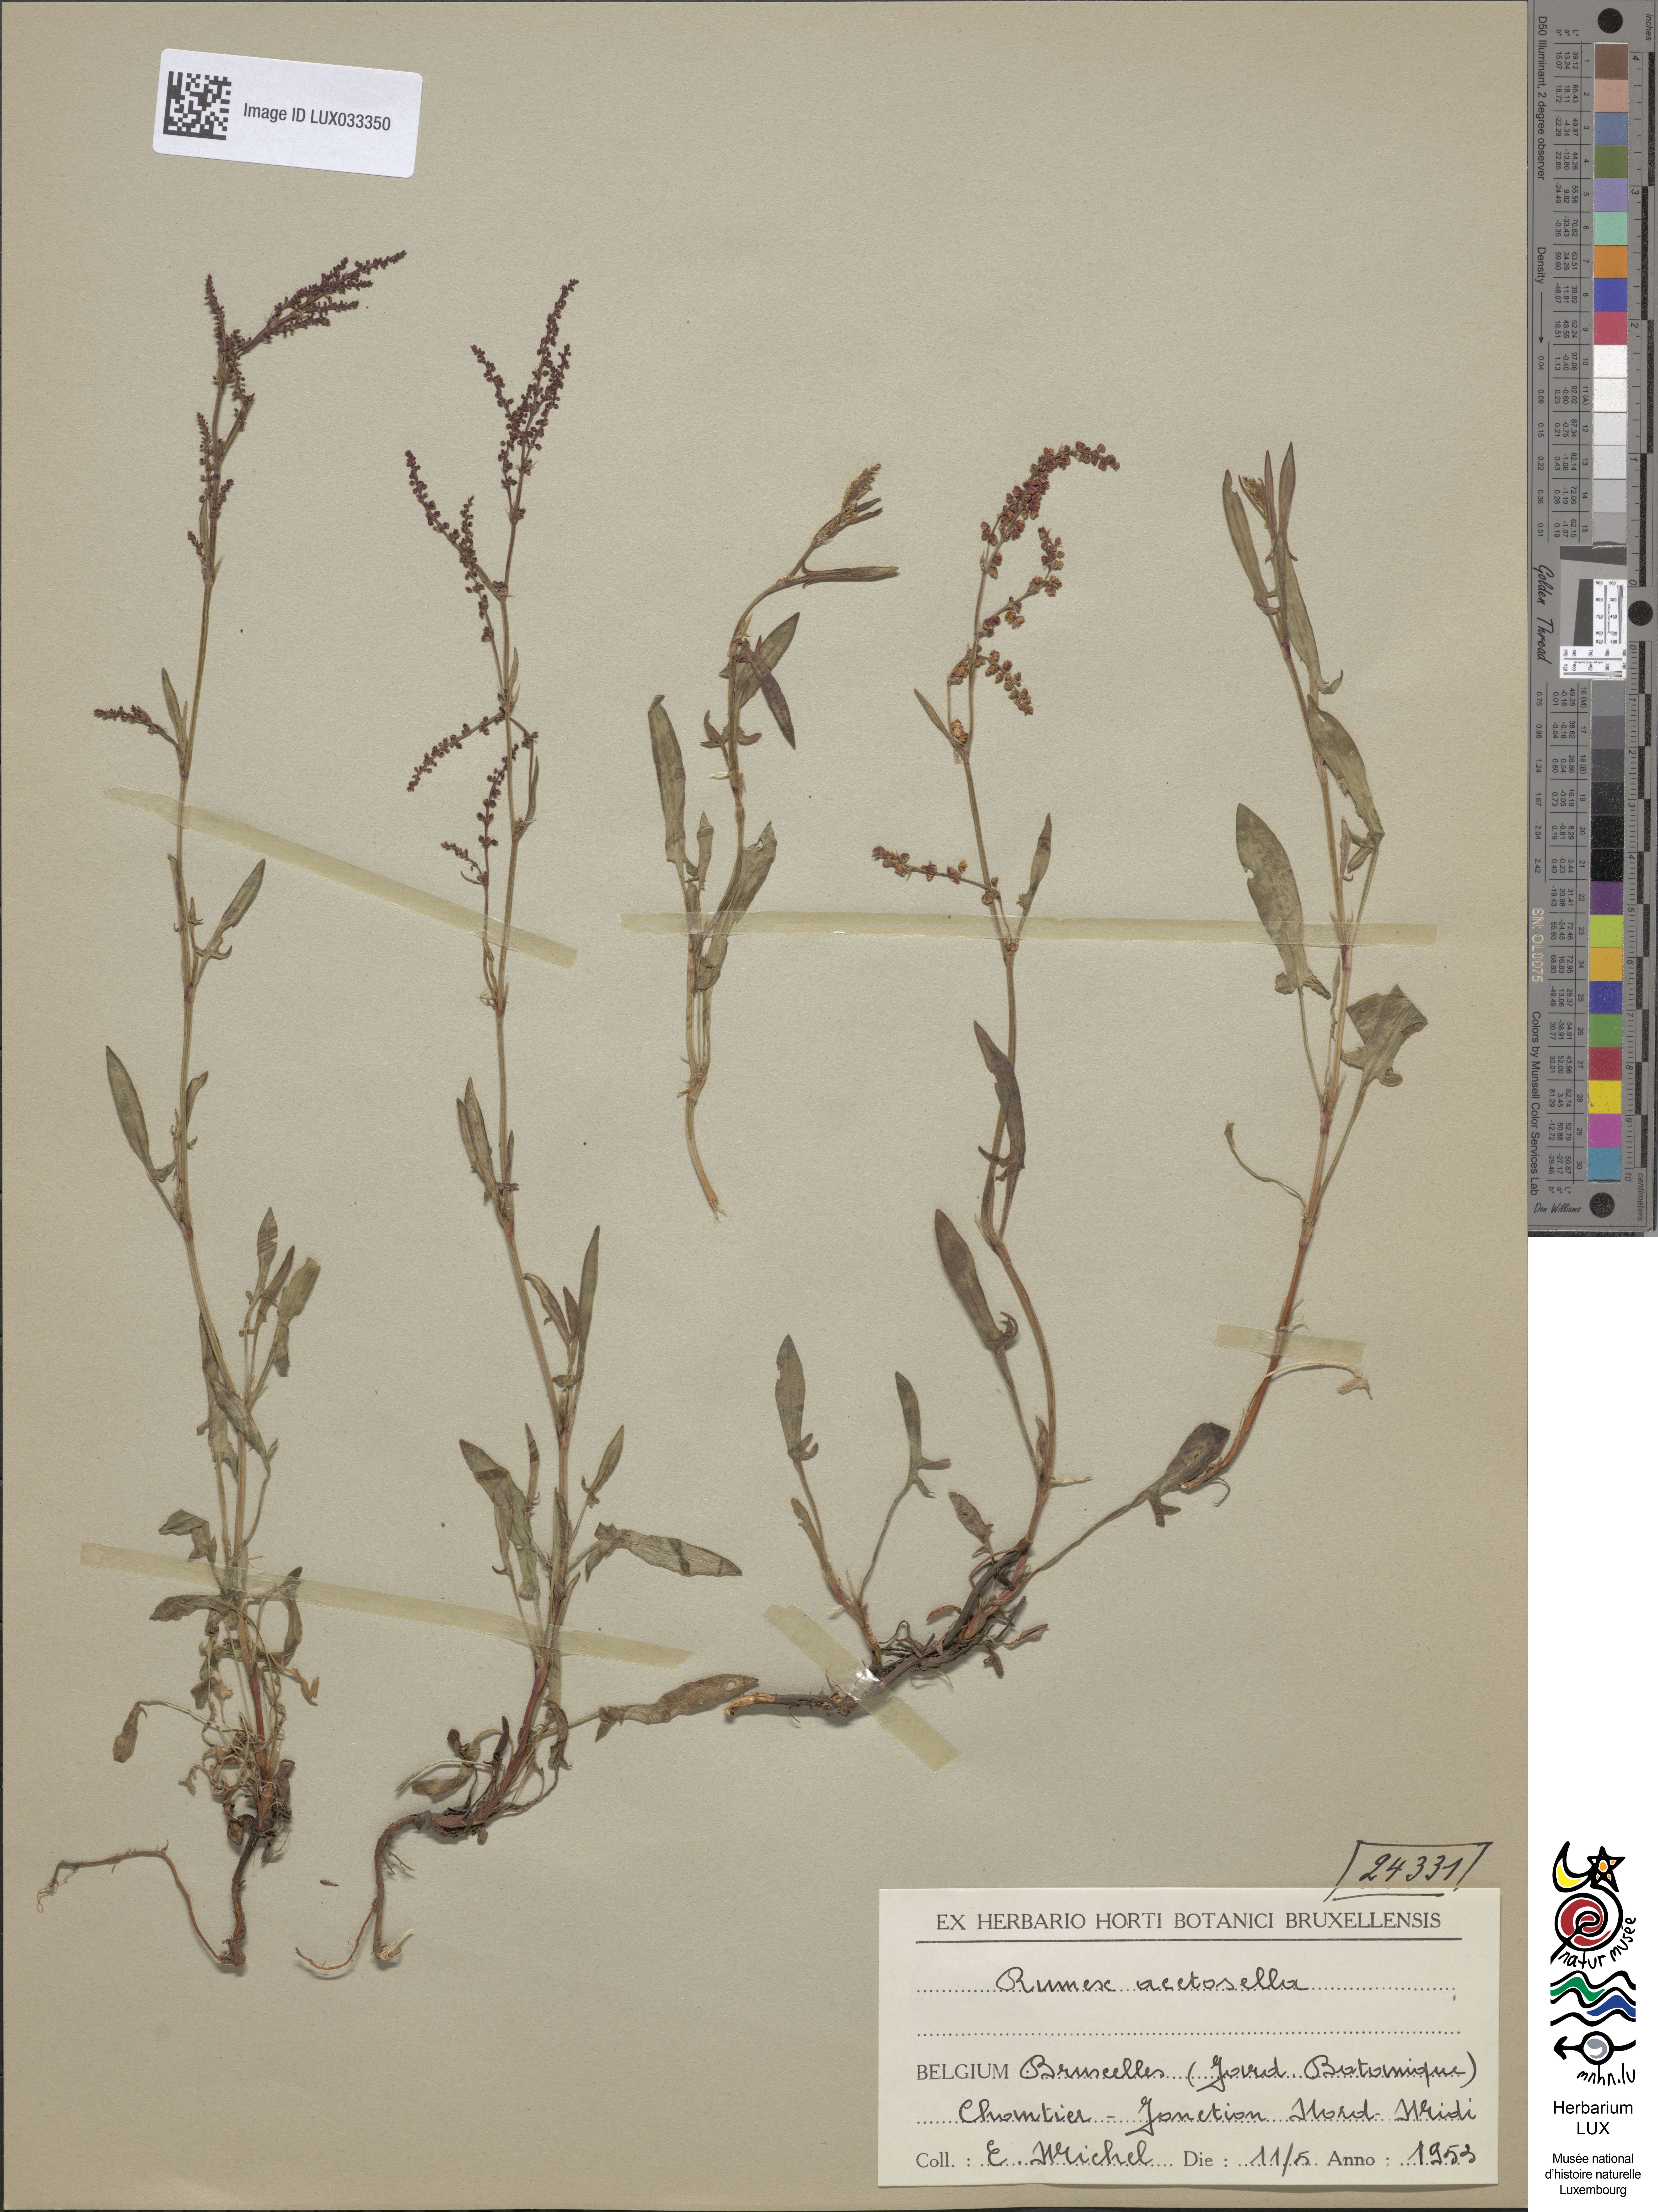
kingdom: Plantae
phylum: Tracheophyta
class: Magnoliopsida
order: Caryophyllales
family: Polygonaceae
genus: Rumex
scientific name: Rumex acetosella
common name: Common sheep sorrel
